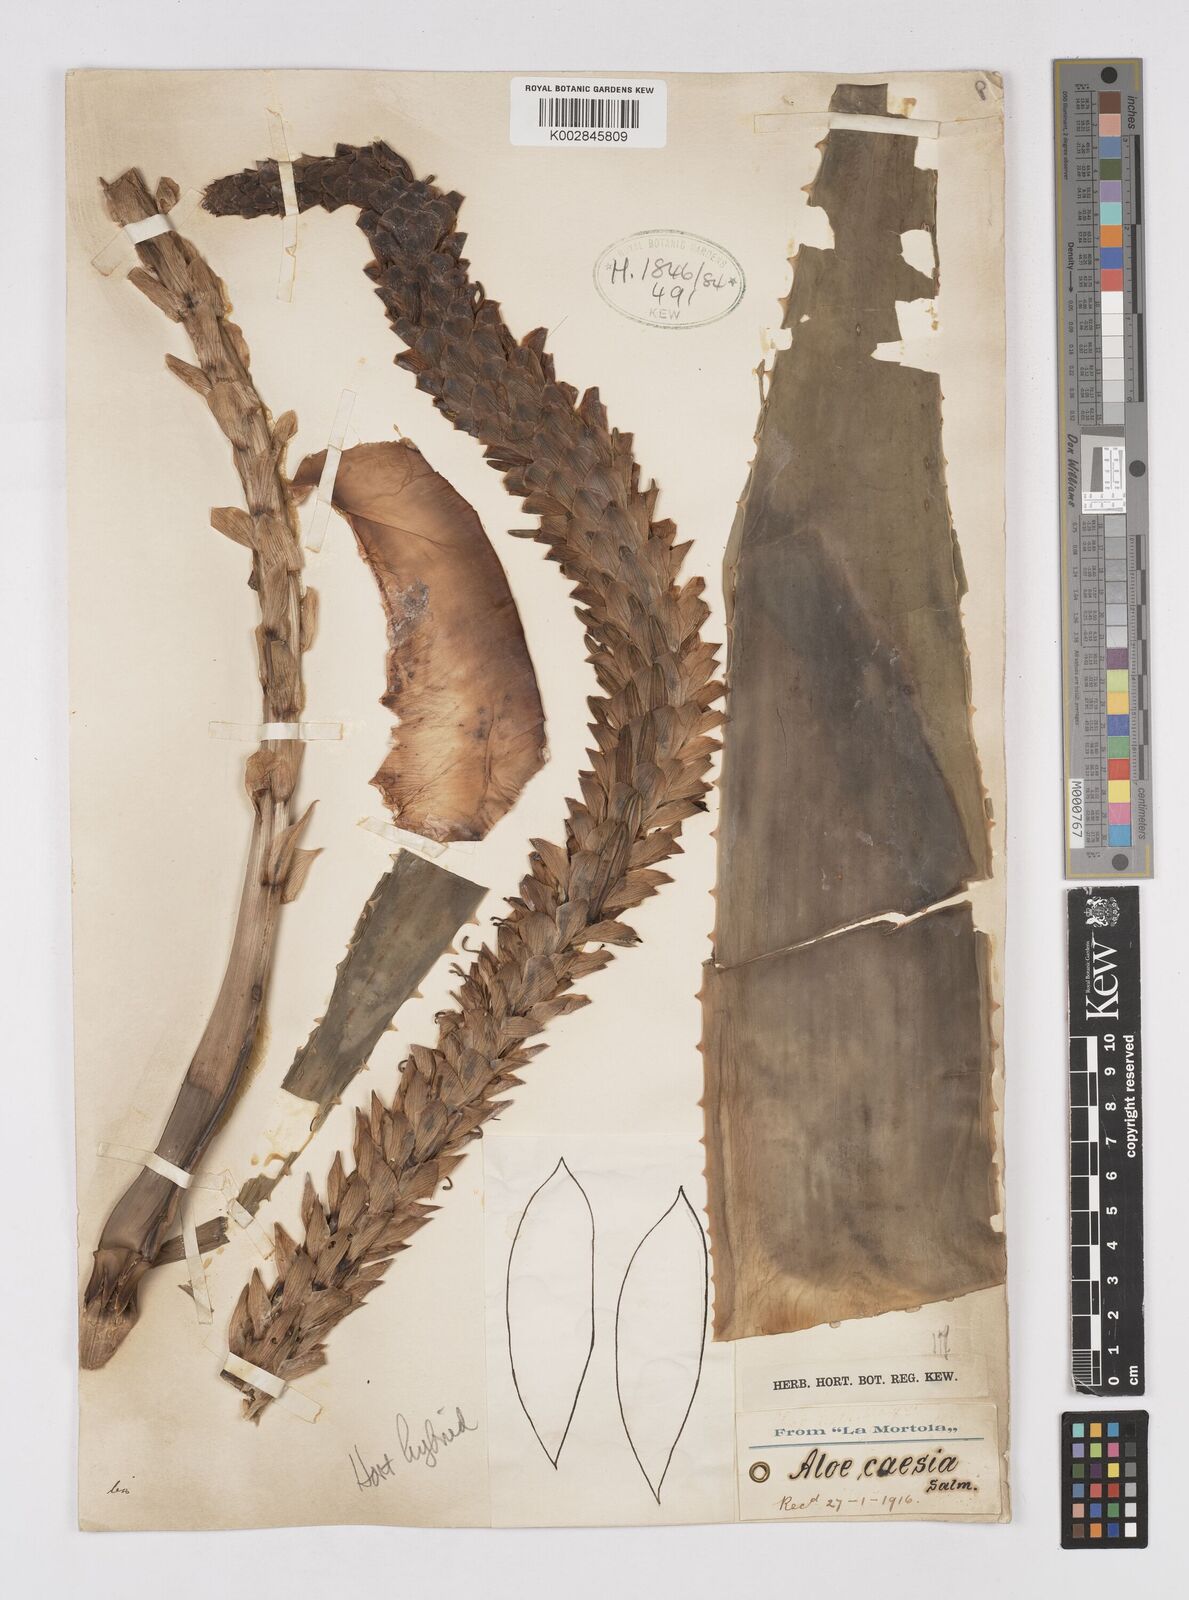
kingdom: Plantae
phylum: Tracheophyta
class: Liliopsida
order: Asparagales
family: Asphodelaceae
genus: Aloe
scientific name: Aloe caesia
